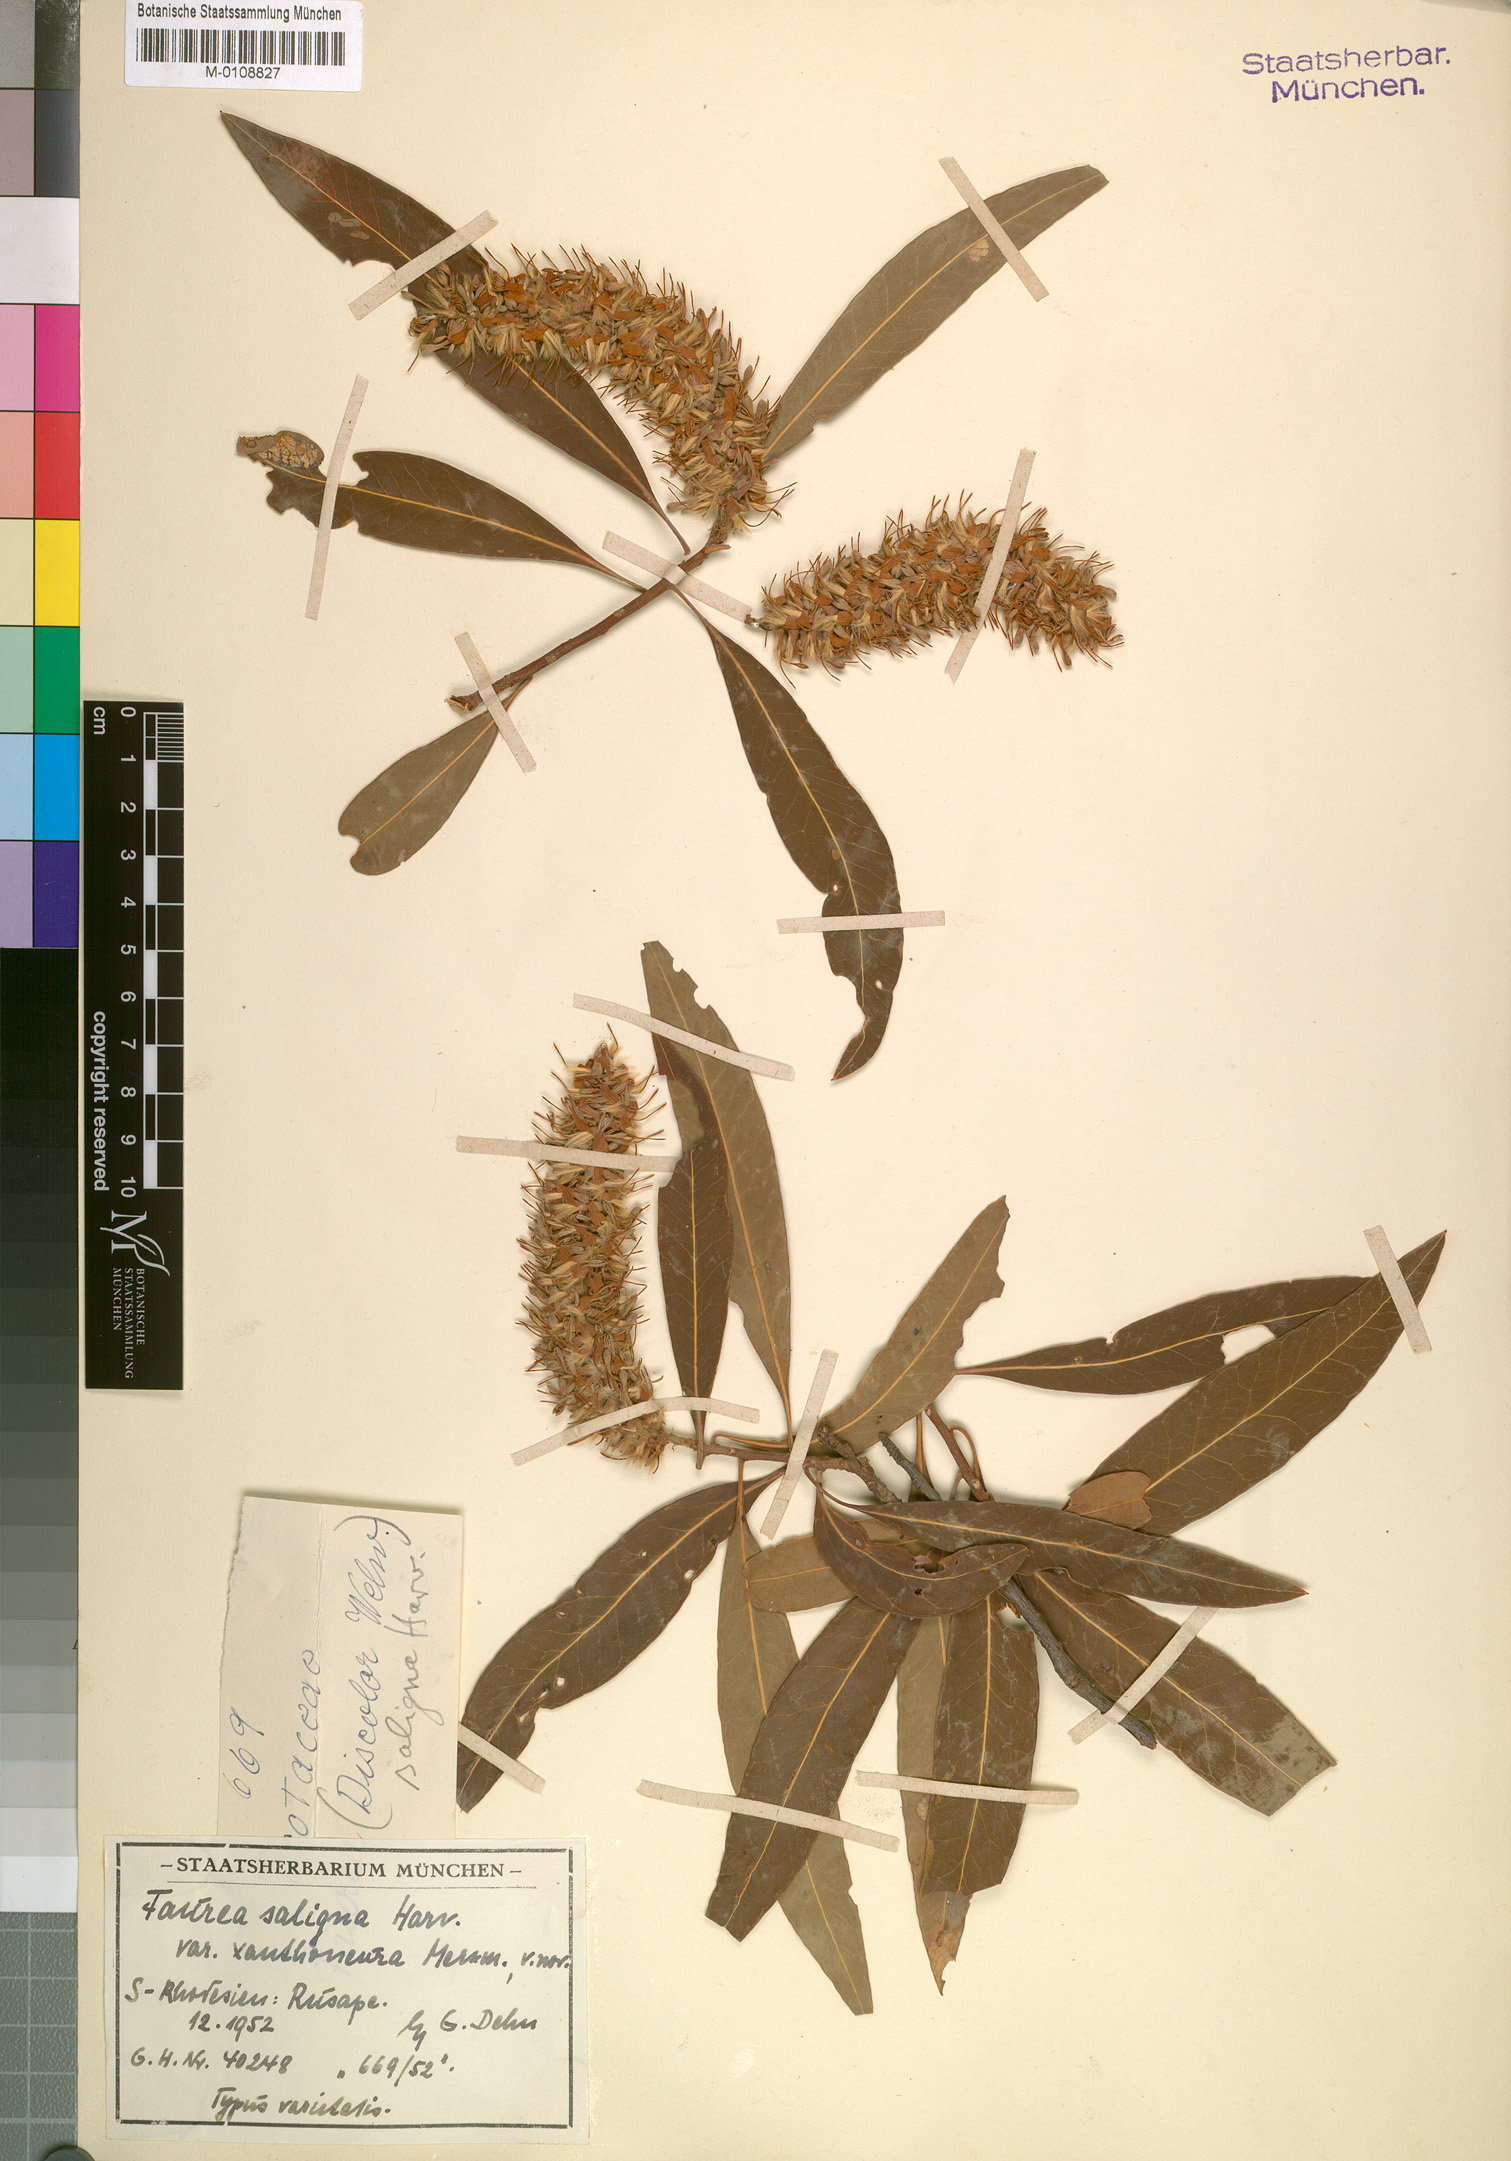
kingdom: Plantae
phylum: Tracheophyta
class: Magnoliopsida
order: Proteales
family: Proteaceae
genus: Faurea
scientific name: Faurea saligna
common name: African bean
